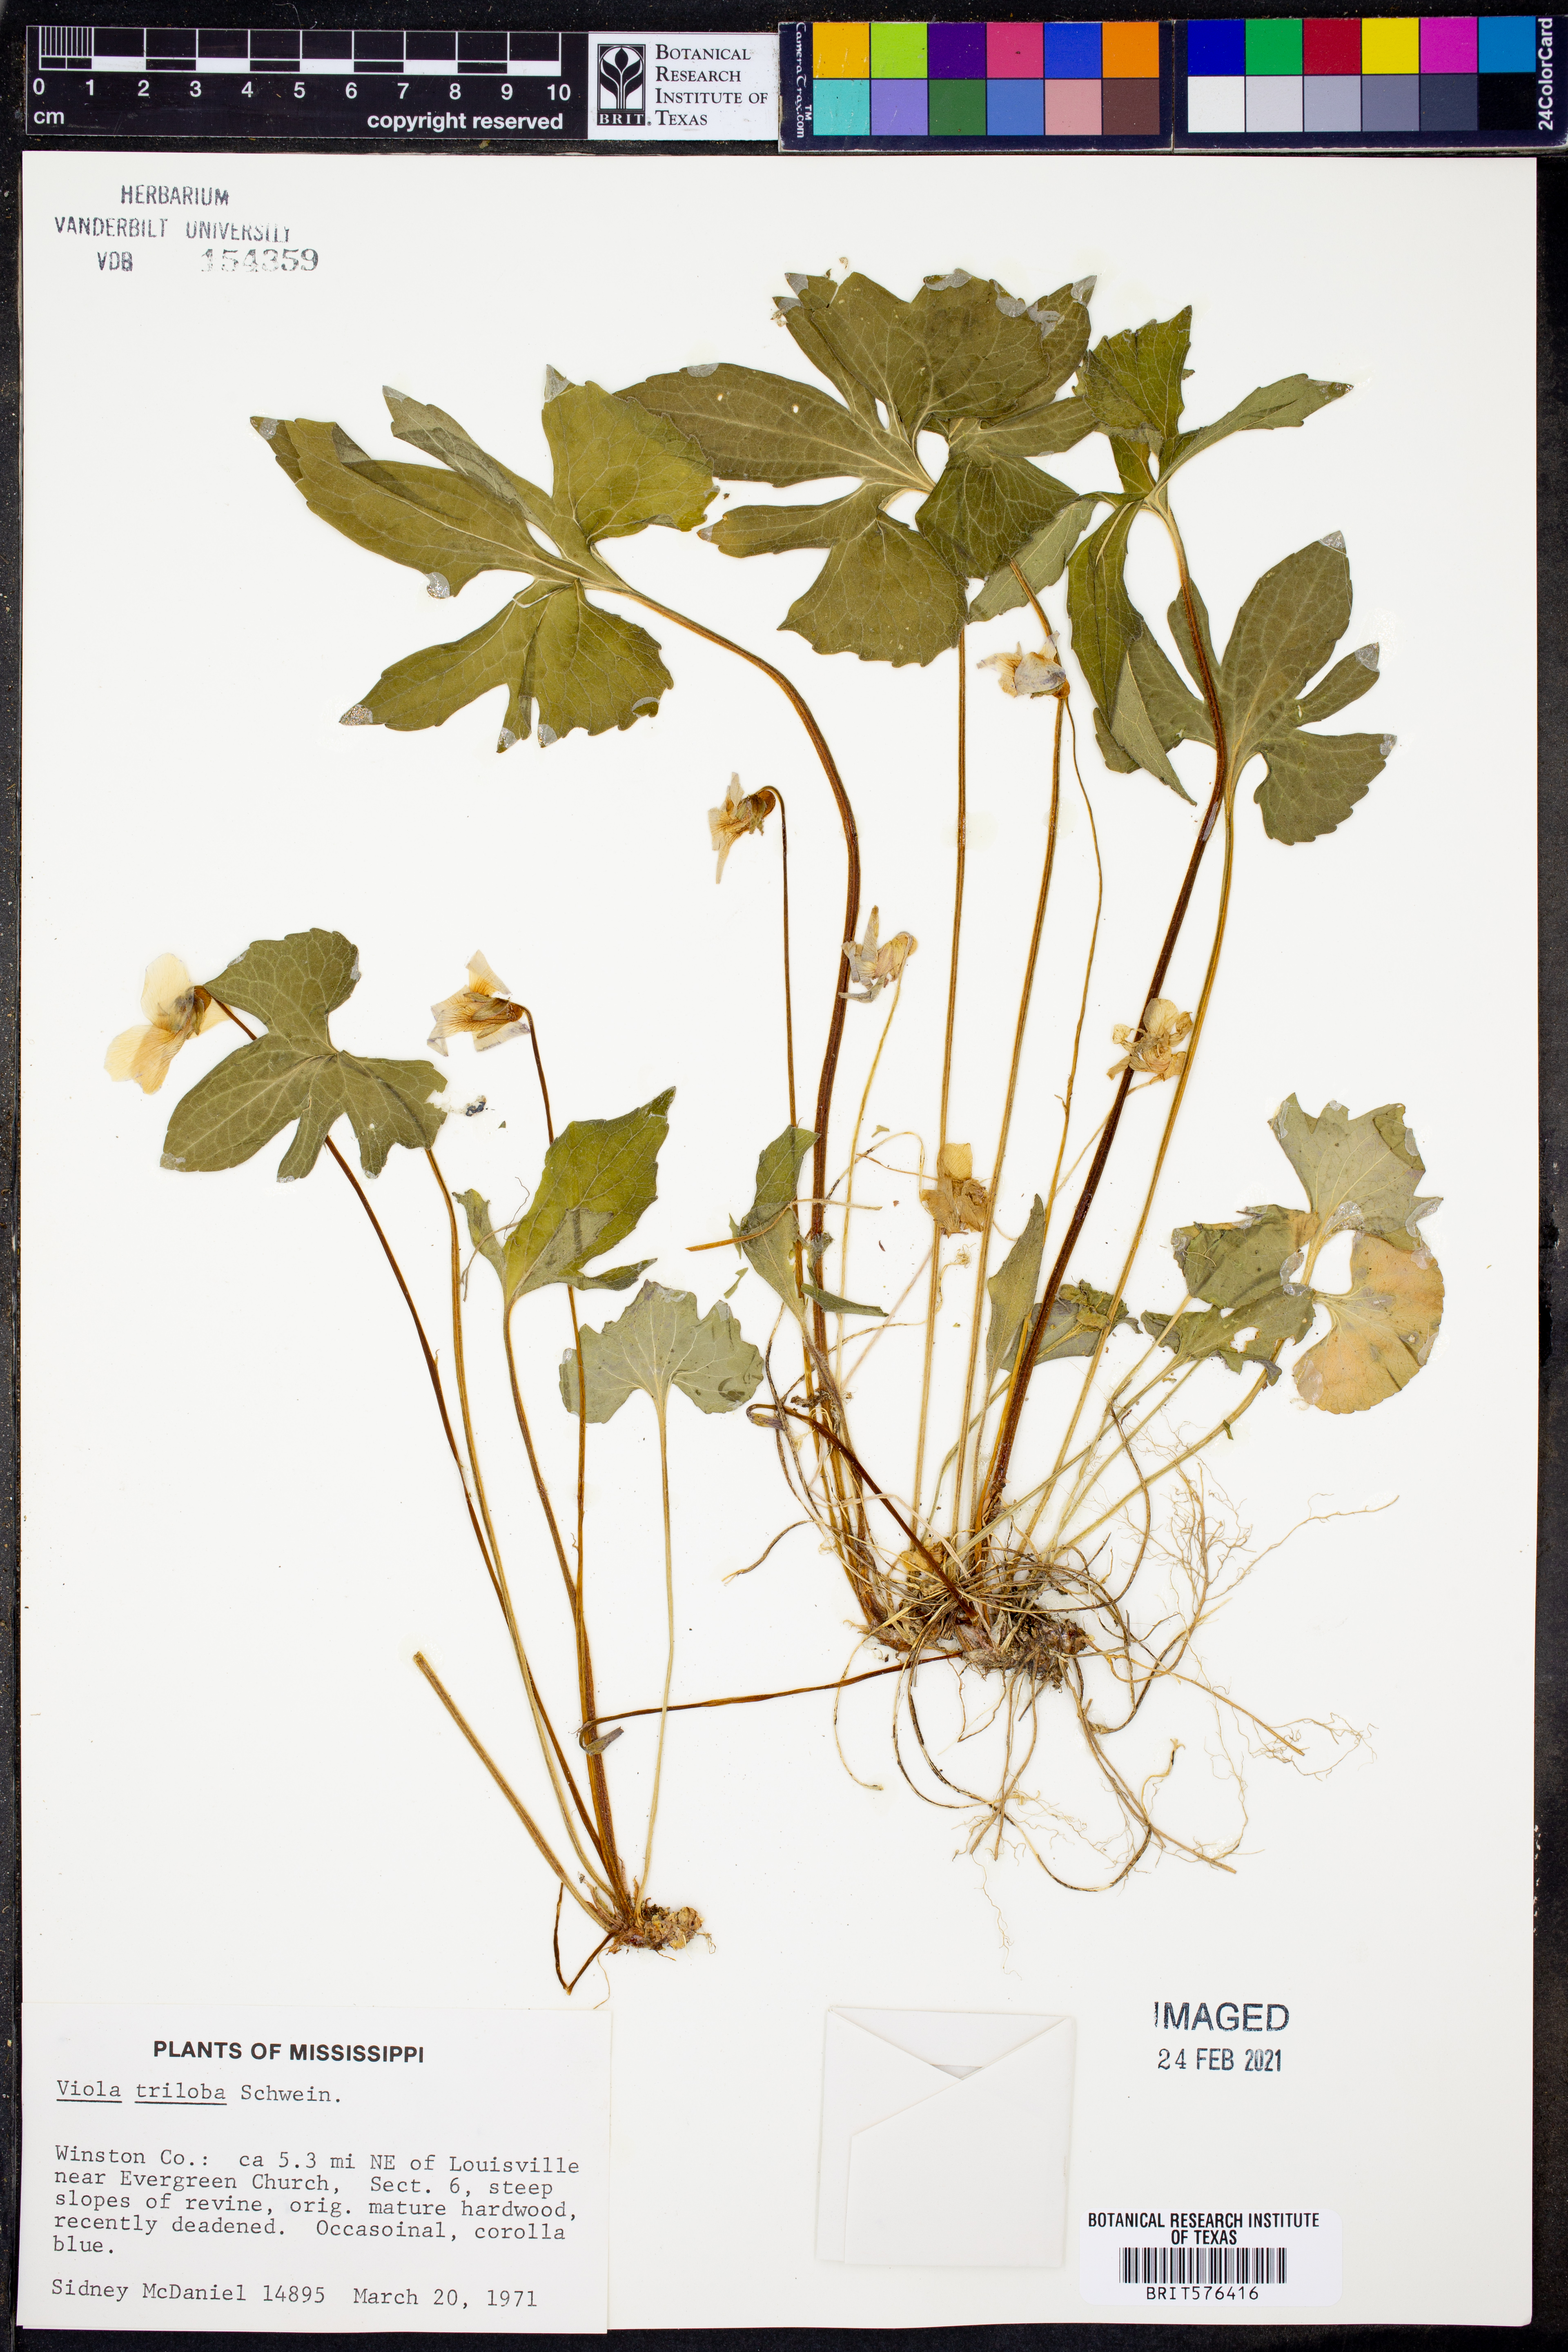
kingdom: Plantae
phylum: Tracheophyta
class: Magnoliopsida
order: Malpighiales
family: Violaceae
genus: Viola
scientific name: Viola palmata
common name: Early blue violet
